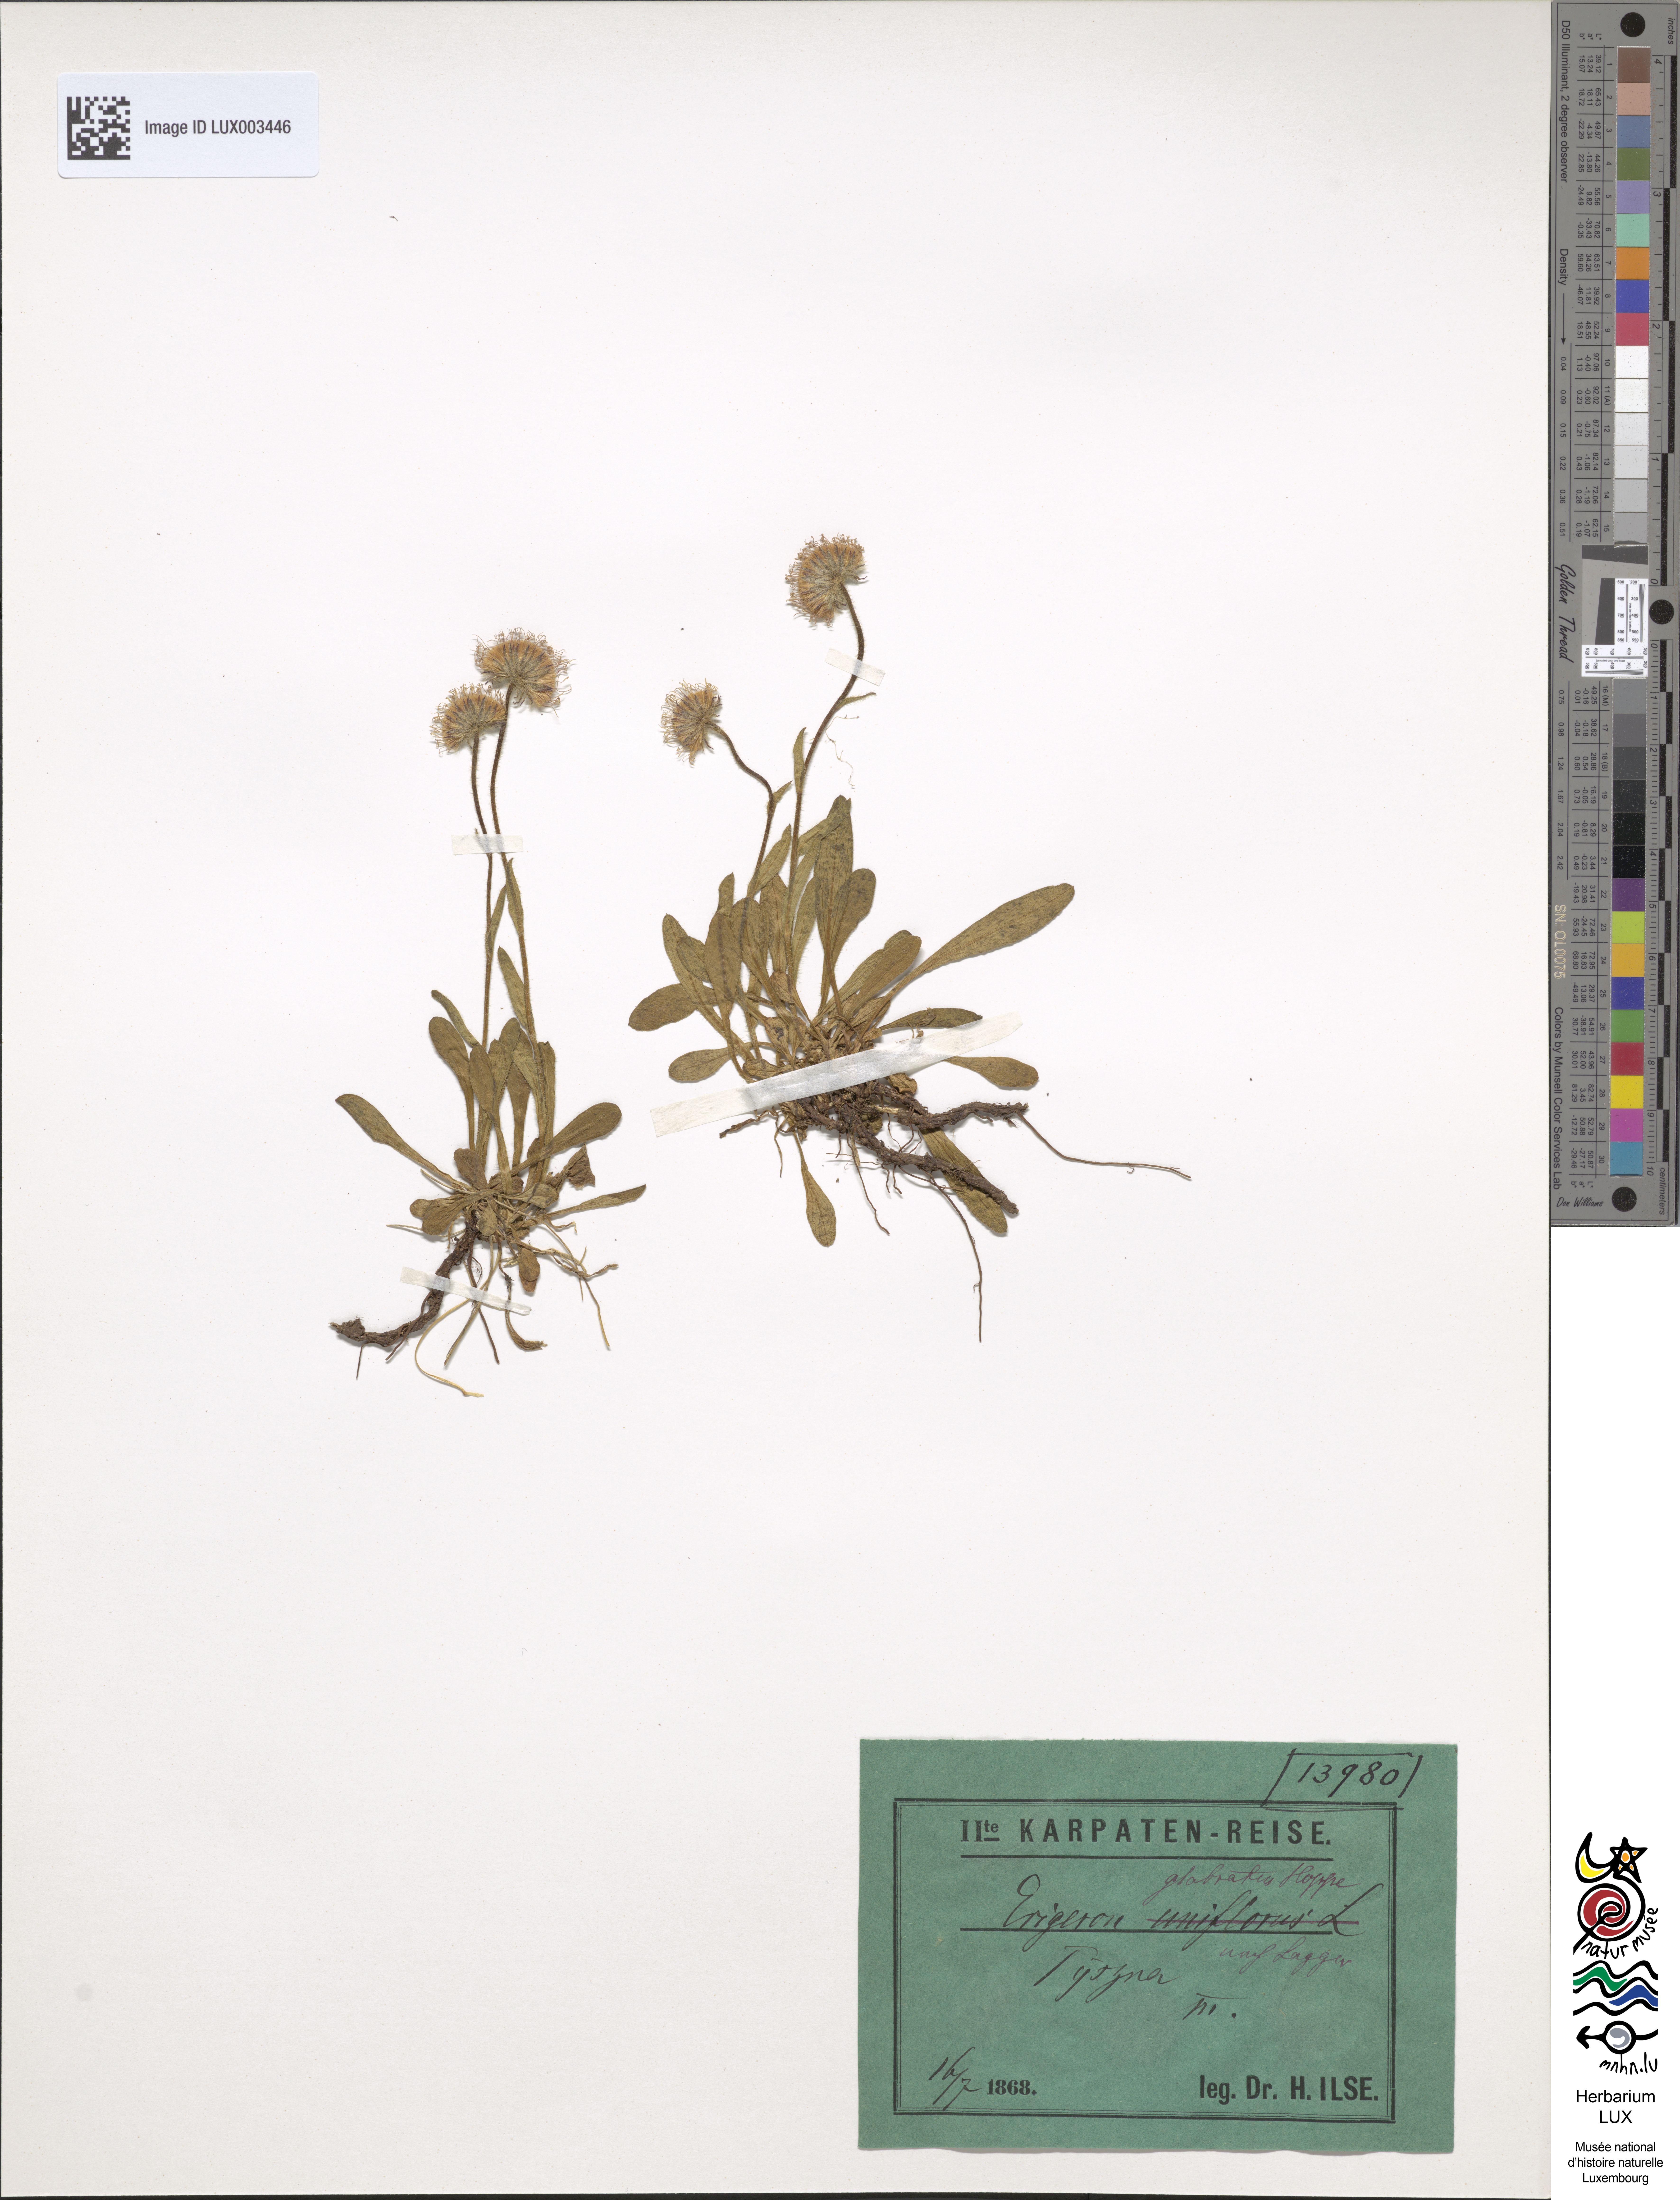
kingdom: Plantae
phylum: Tracheophyta
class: Magnoliopsida
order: Asterales
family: Asteraceae
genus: Erigeron
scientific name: Erigeron glabratus
